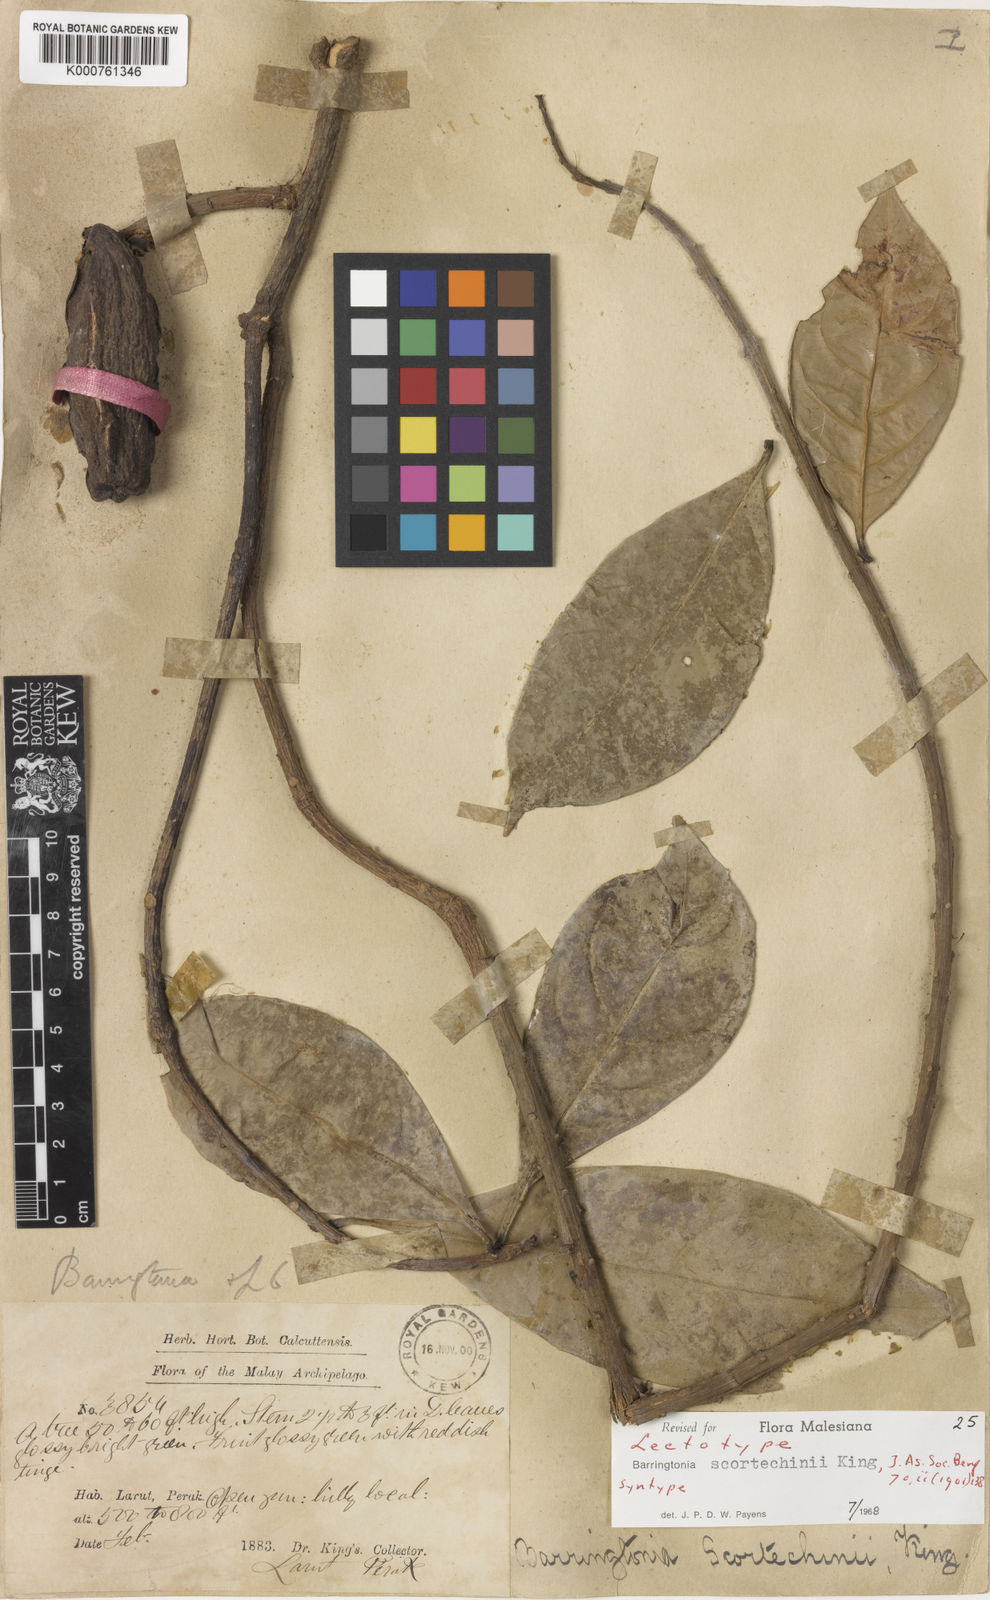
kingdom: Plantae
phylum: Tracheophyta
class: Magnoliopsida
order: Ericales
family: Lecythidaceae
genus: Barringtonia
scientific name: Barringtonia scortechinii
